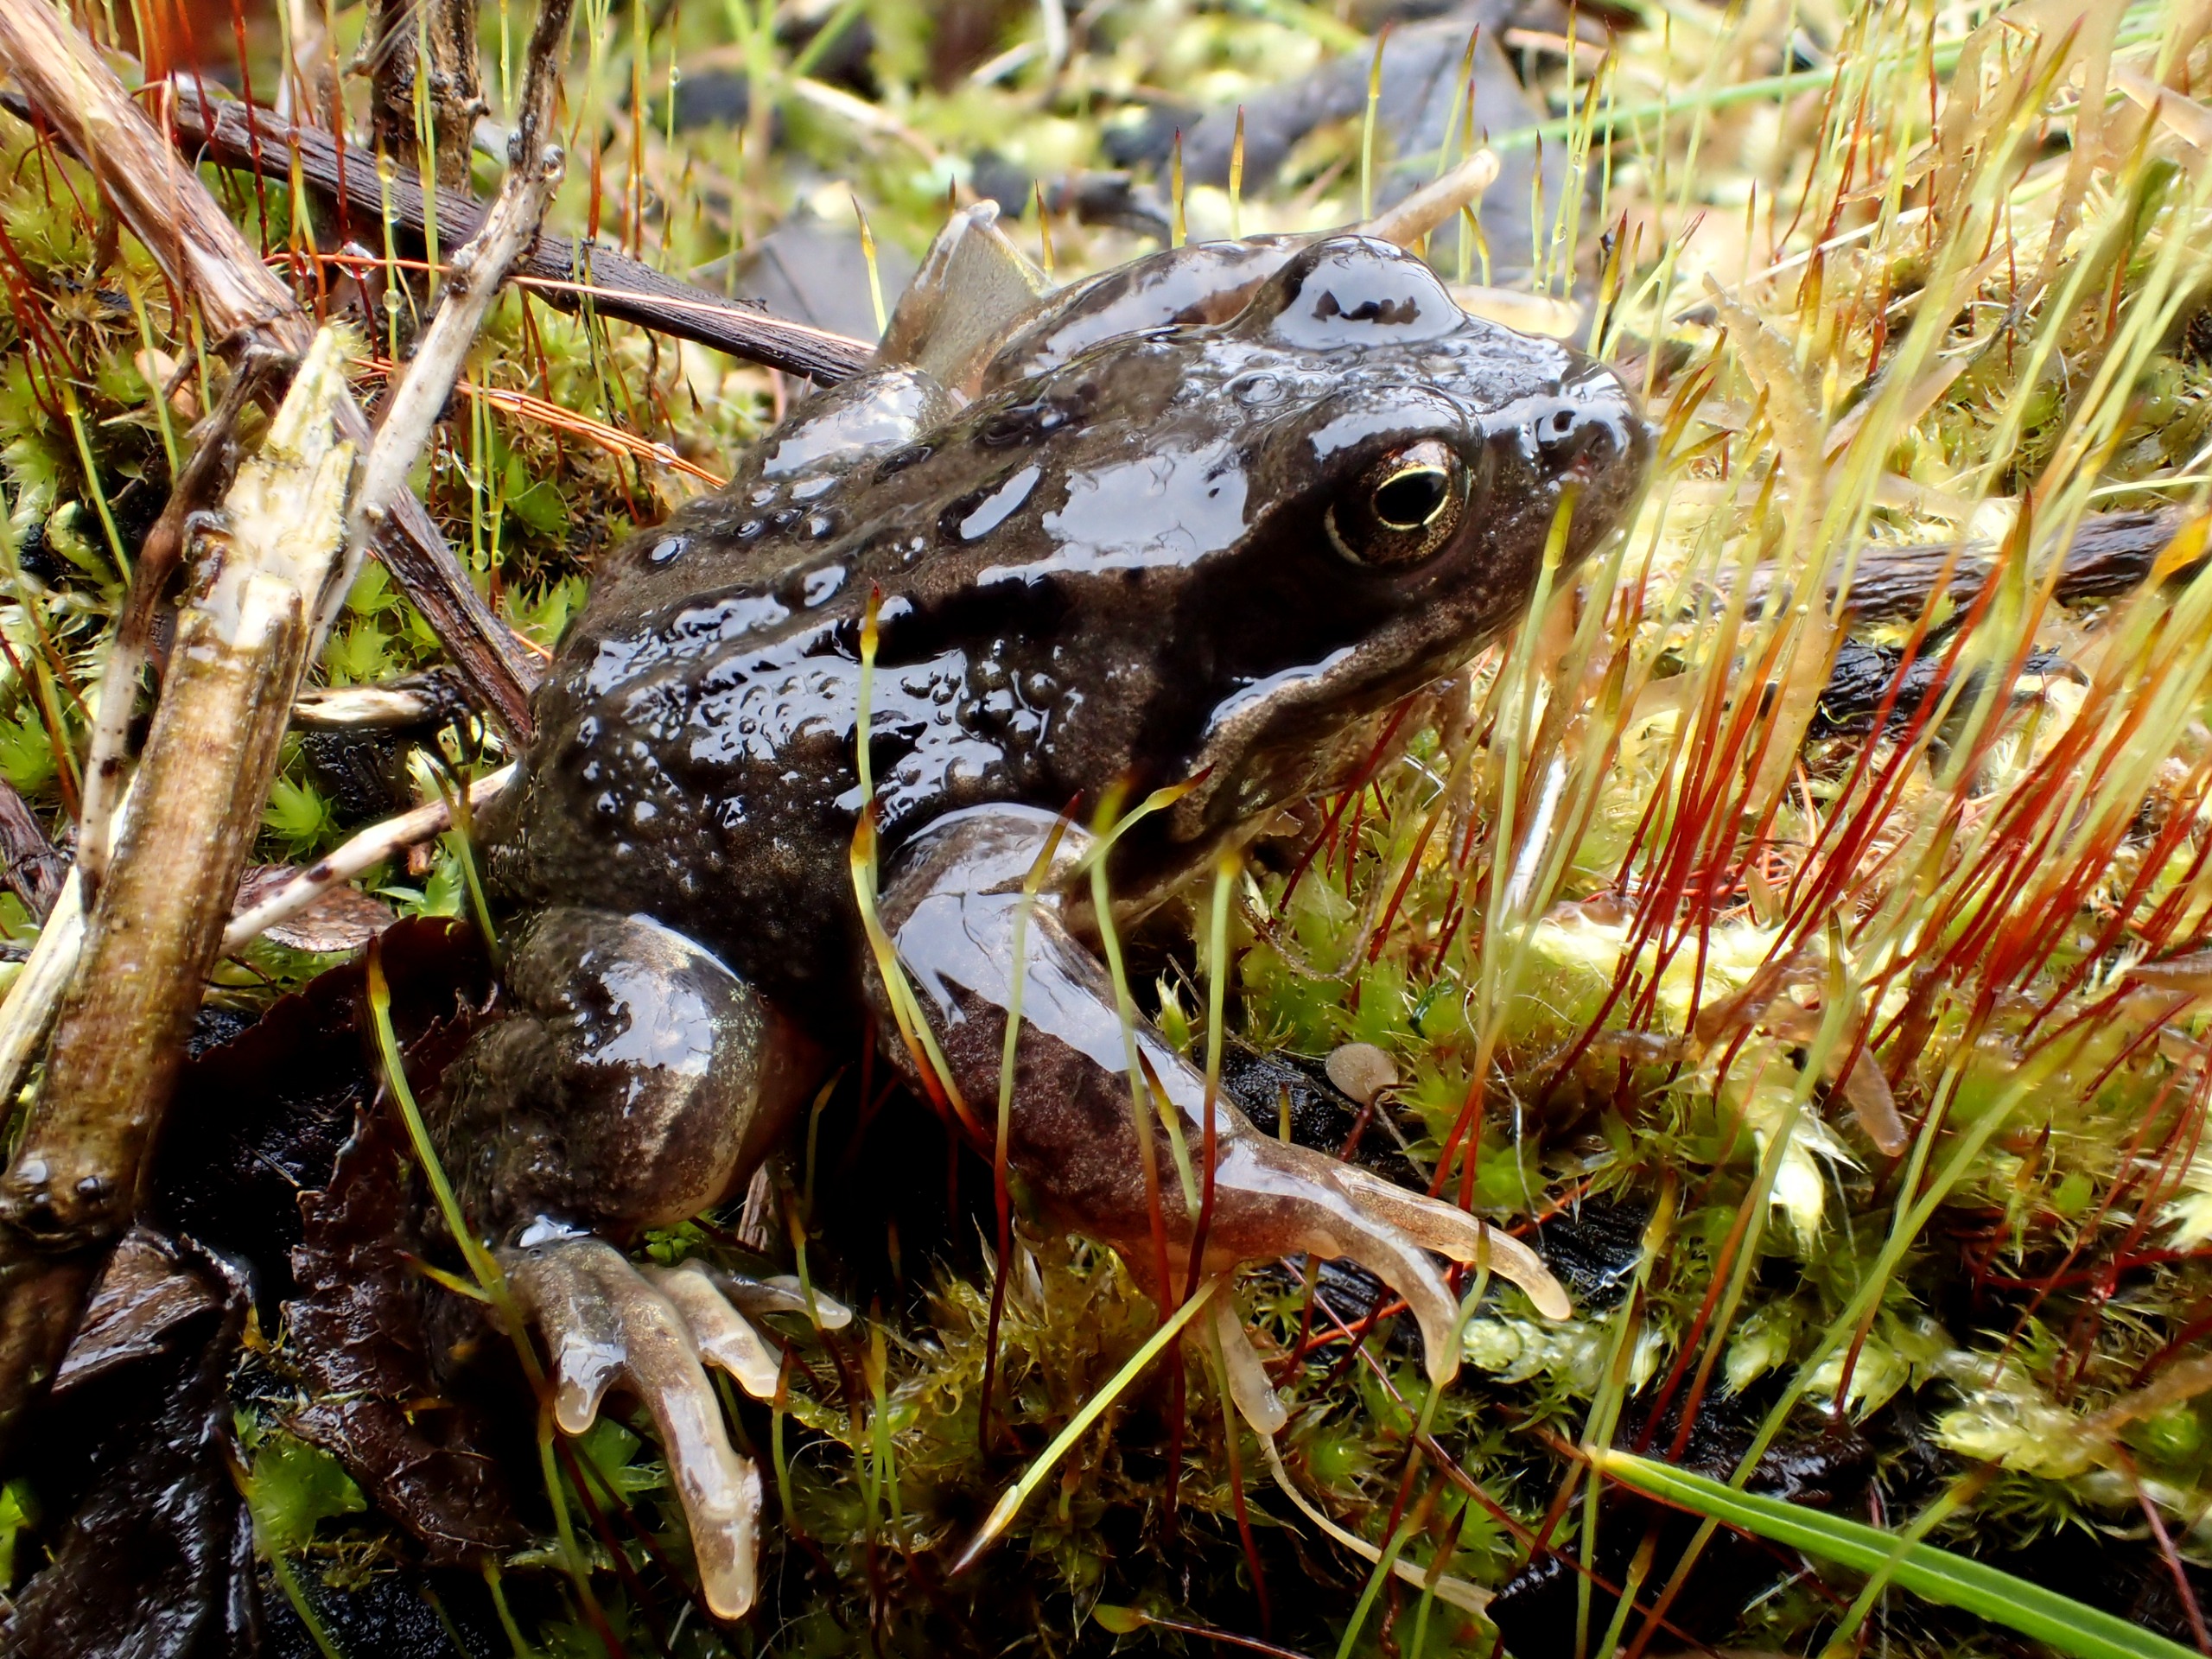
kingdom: Animalia
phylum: Chordata
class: Amphibia
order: Anura
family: Ranidae
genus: Rana
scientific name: Rana temporaria
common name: Butsnudet frø
